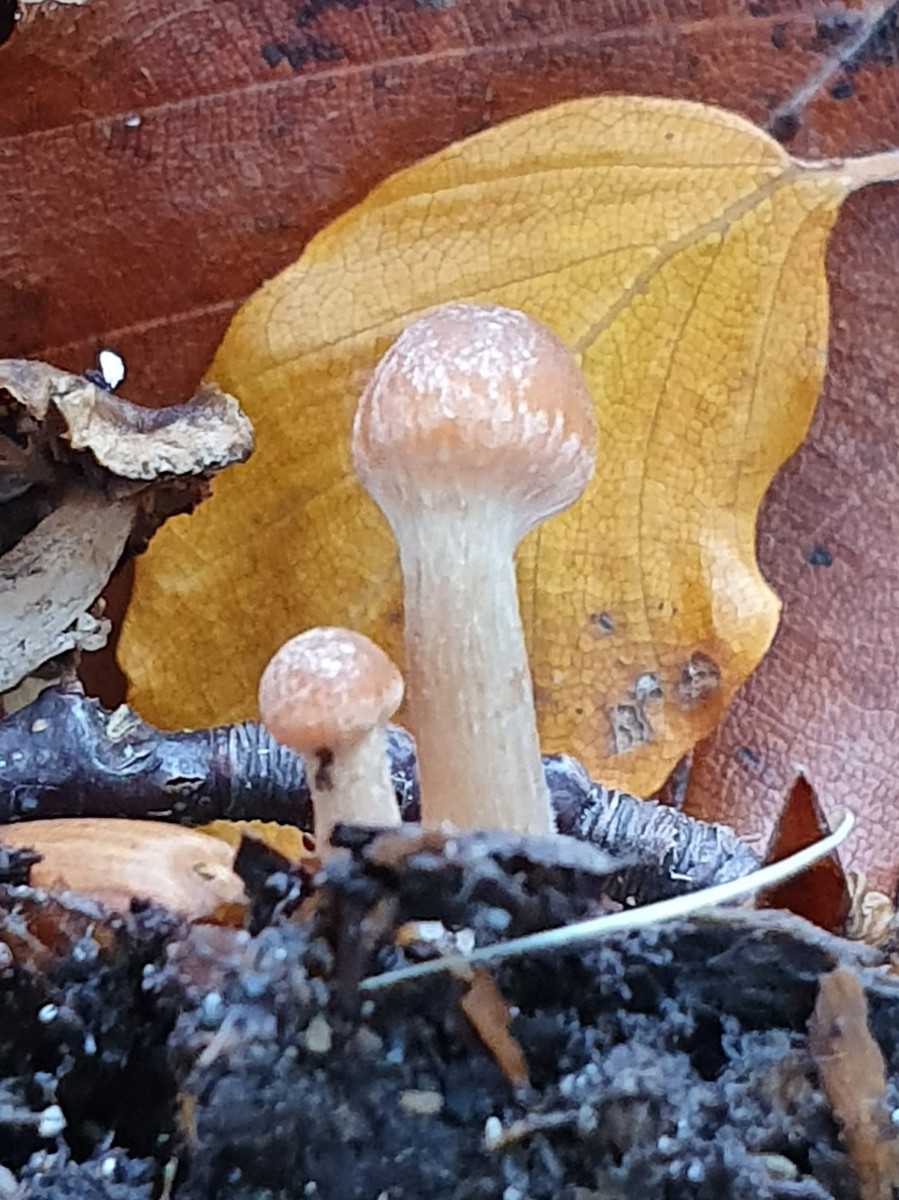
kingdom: Fungi
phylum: Basidiomycota
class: Agaricomycetes
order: Agaricales
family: Tubariaceae
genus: Tubaria
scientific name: Tubaria furfuracea
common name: kliddet fnughat
